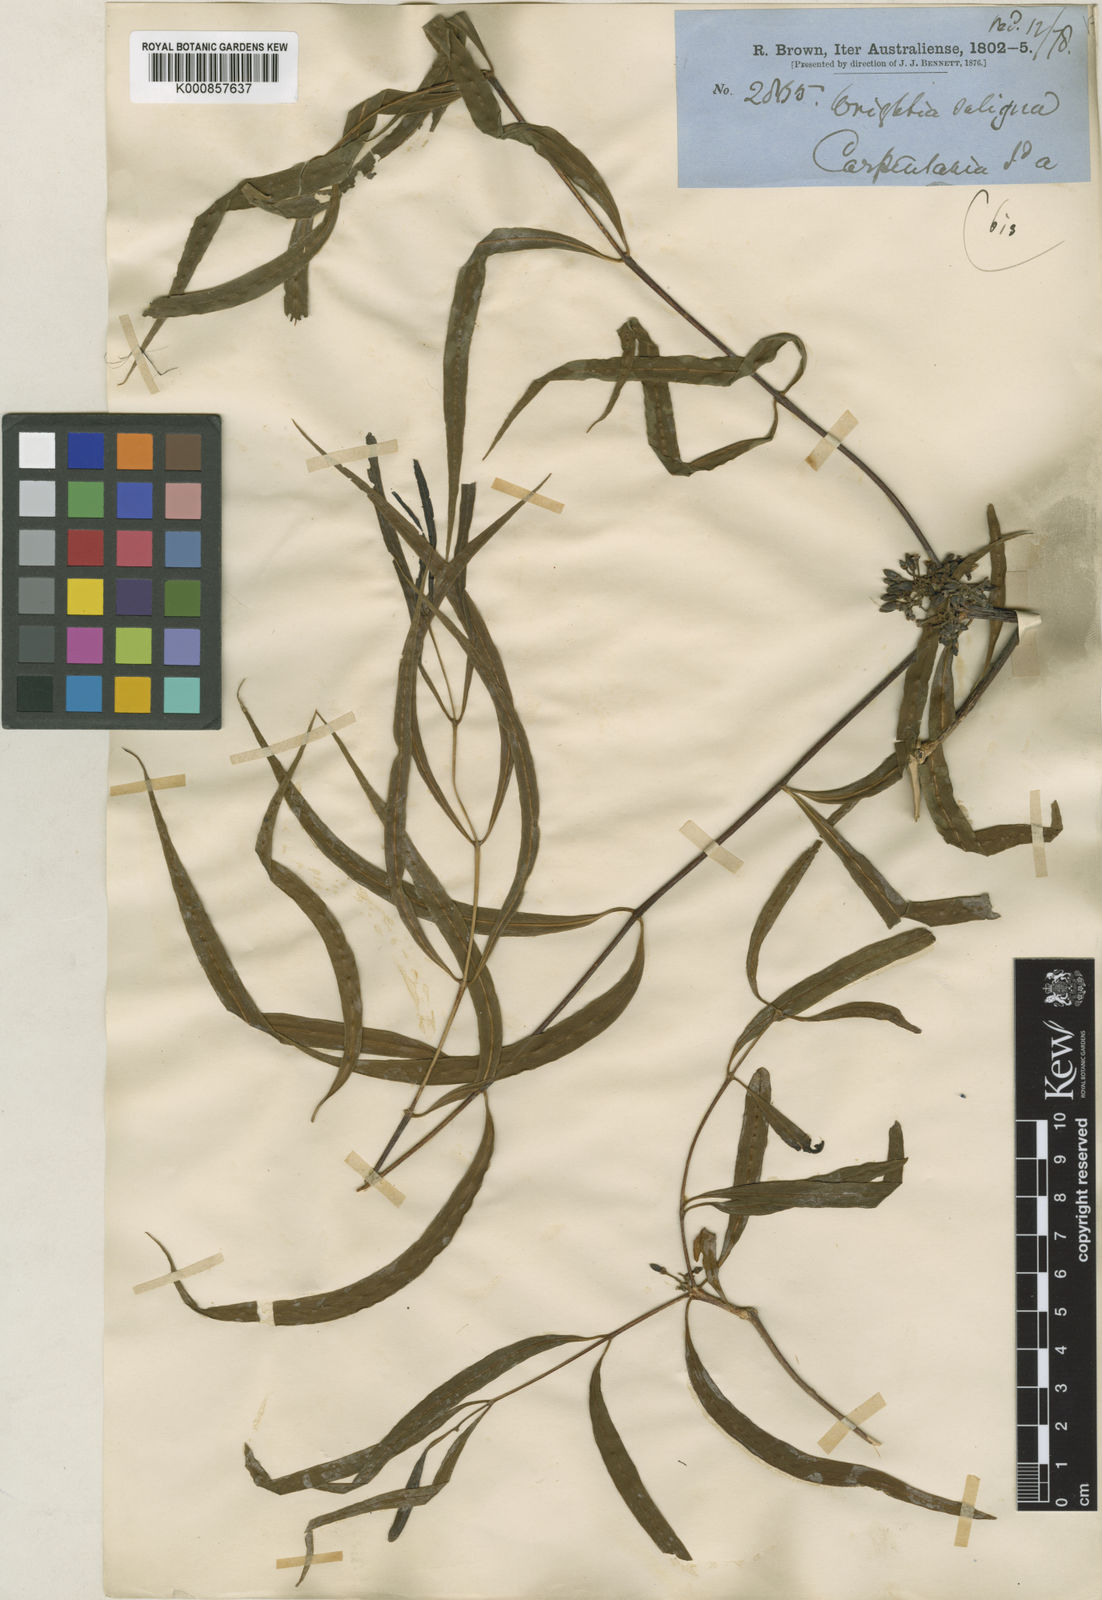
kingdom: Plantae
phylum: Tracheophyta
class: Magnoliopsida
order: Gentianales
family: Apocynaceae
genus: Wrightia
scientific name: Wrightia saligna
